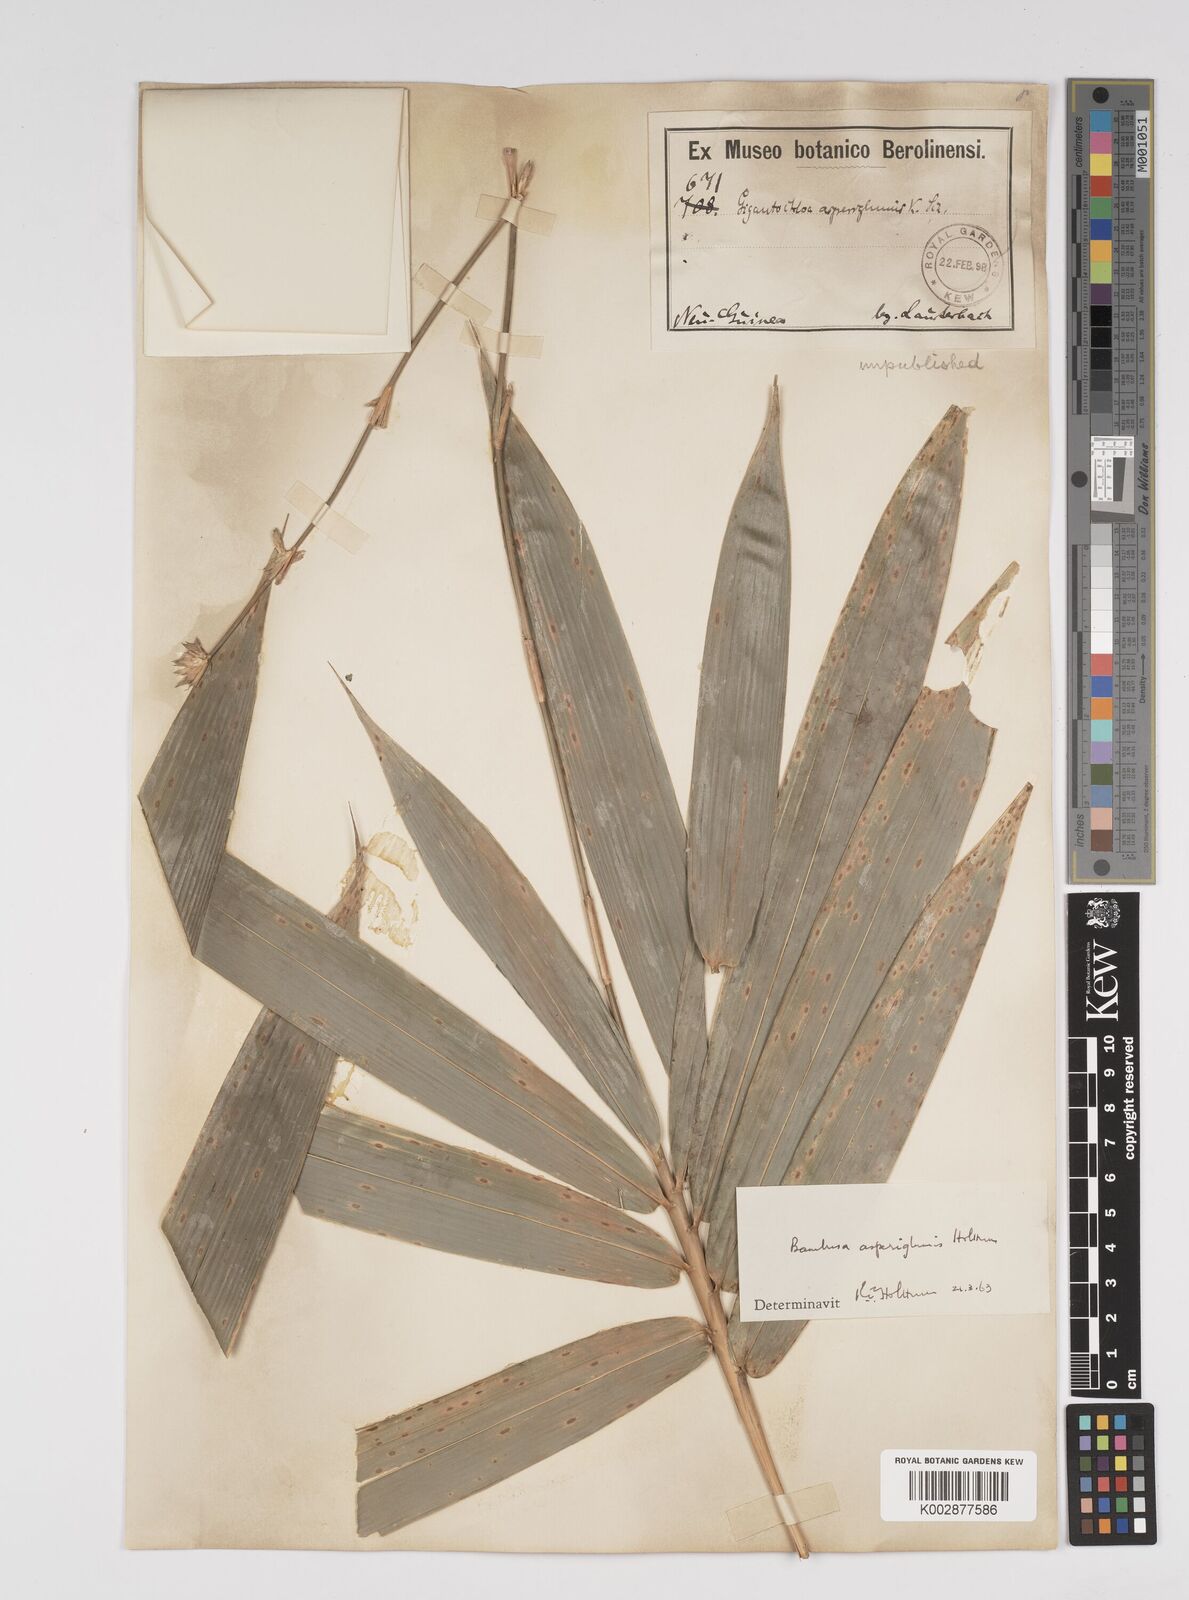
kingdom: Plantae
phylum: Tracheophyta
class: Liliopsida
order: Poales
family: Poaceae
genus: Bambusa
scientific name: Bambusa
